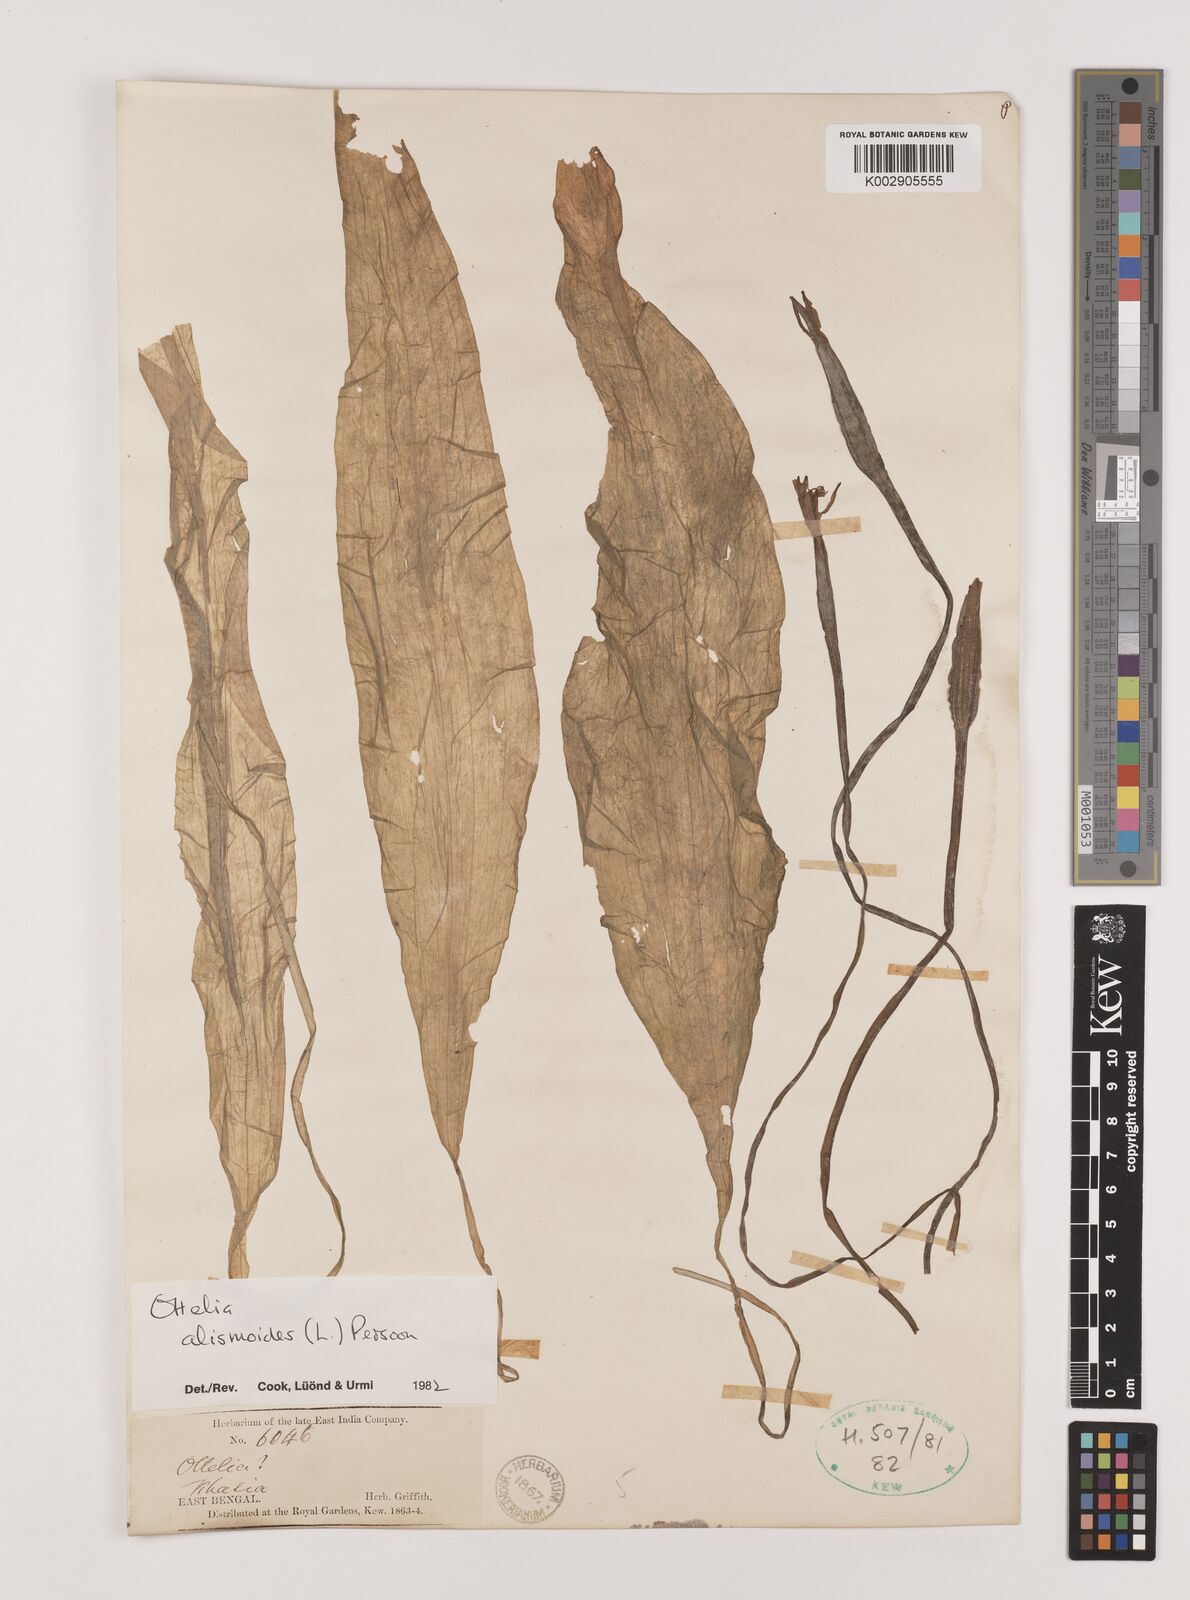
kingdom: Plantae
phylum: Tracheophyta
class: Liliopsida
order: Alismatales
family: Hydrocharitaceae
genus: Ottelia
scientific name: Ottelia alismoides
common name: Duck-lettuce
